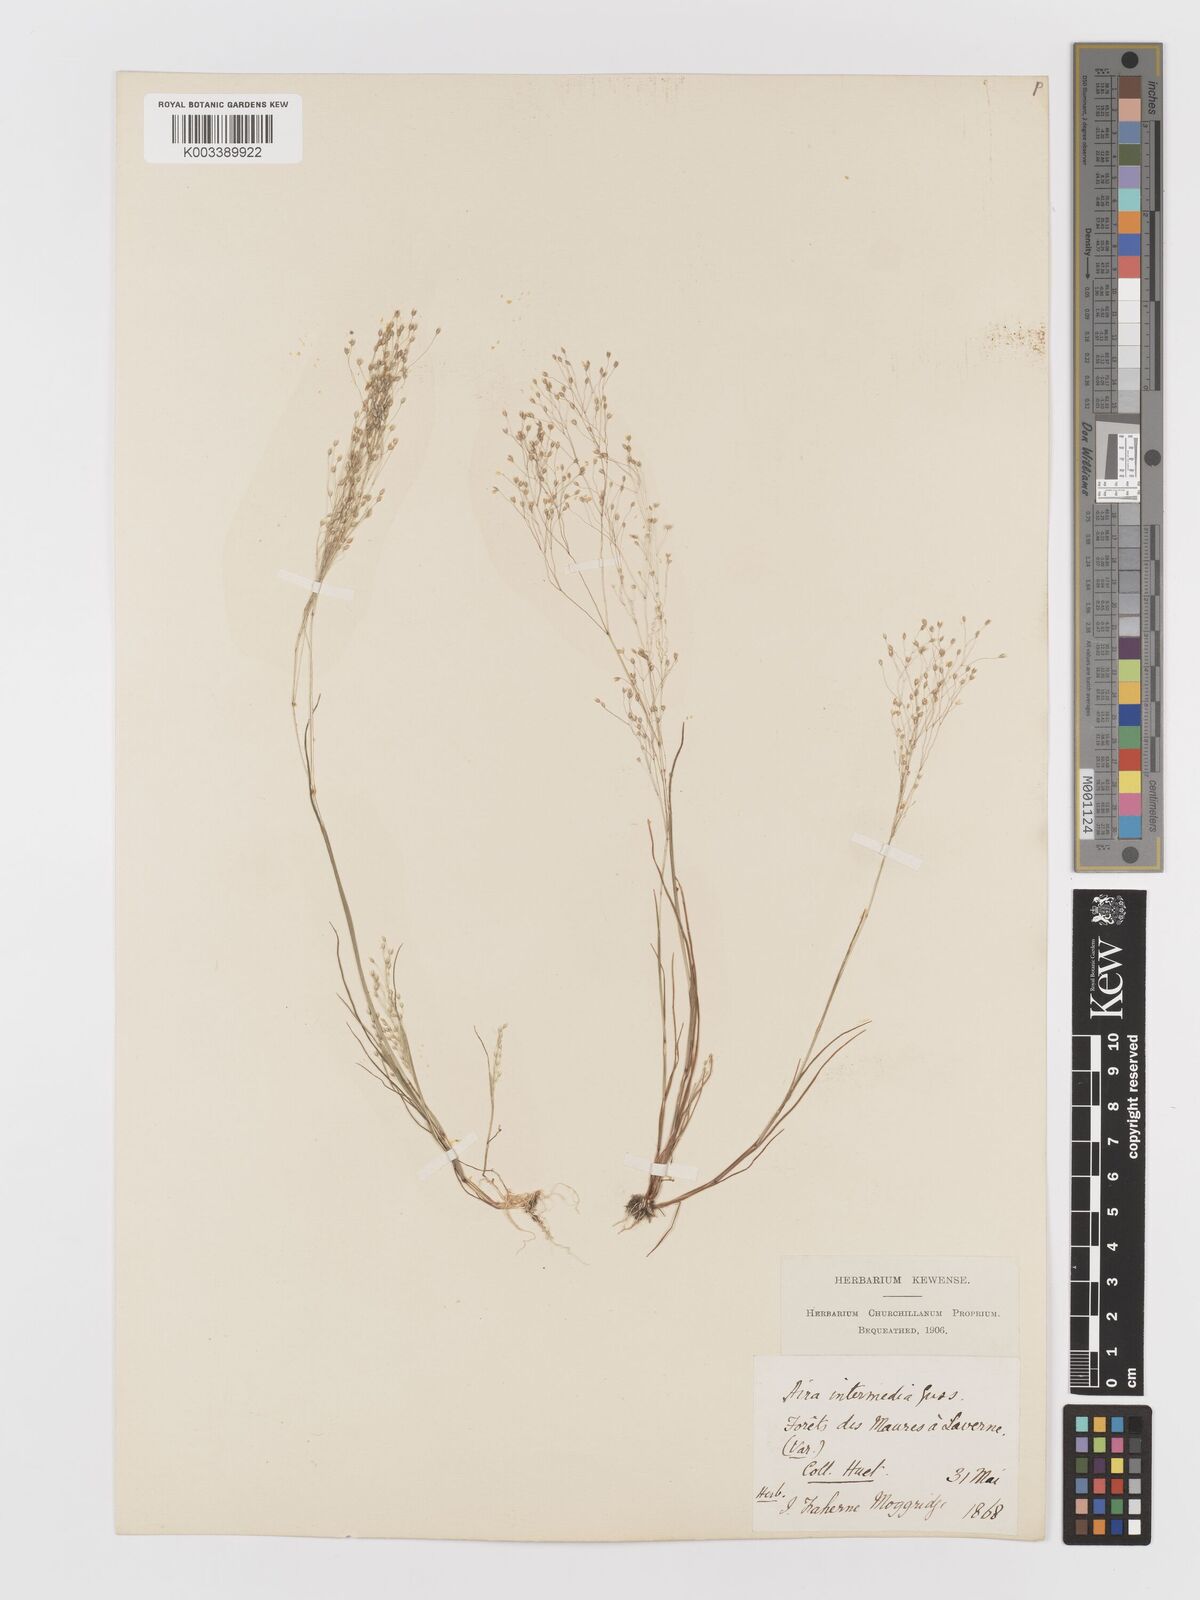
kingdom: Plantae
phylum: Tracheophyta
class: Liliopsida
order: Poales
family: Poaceae
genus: Aira
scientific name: Aira
